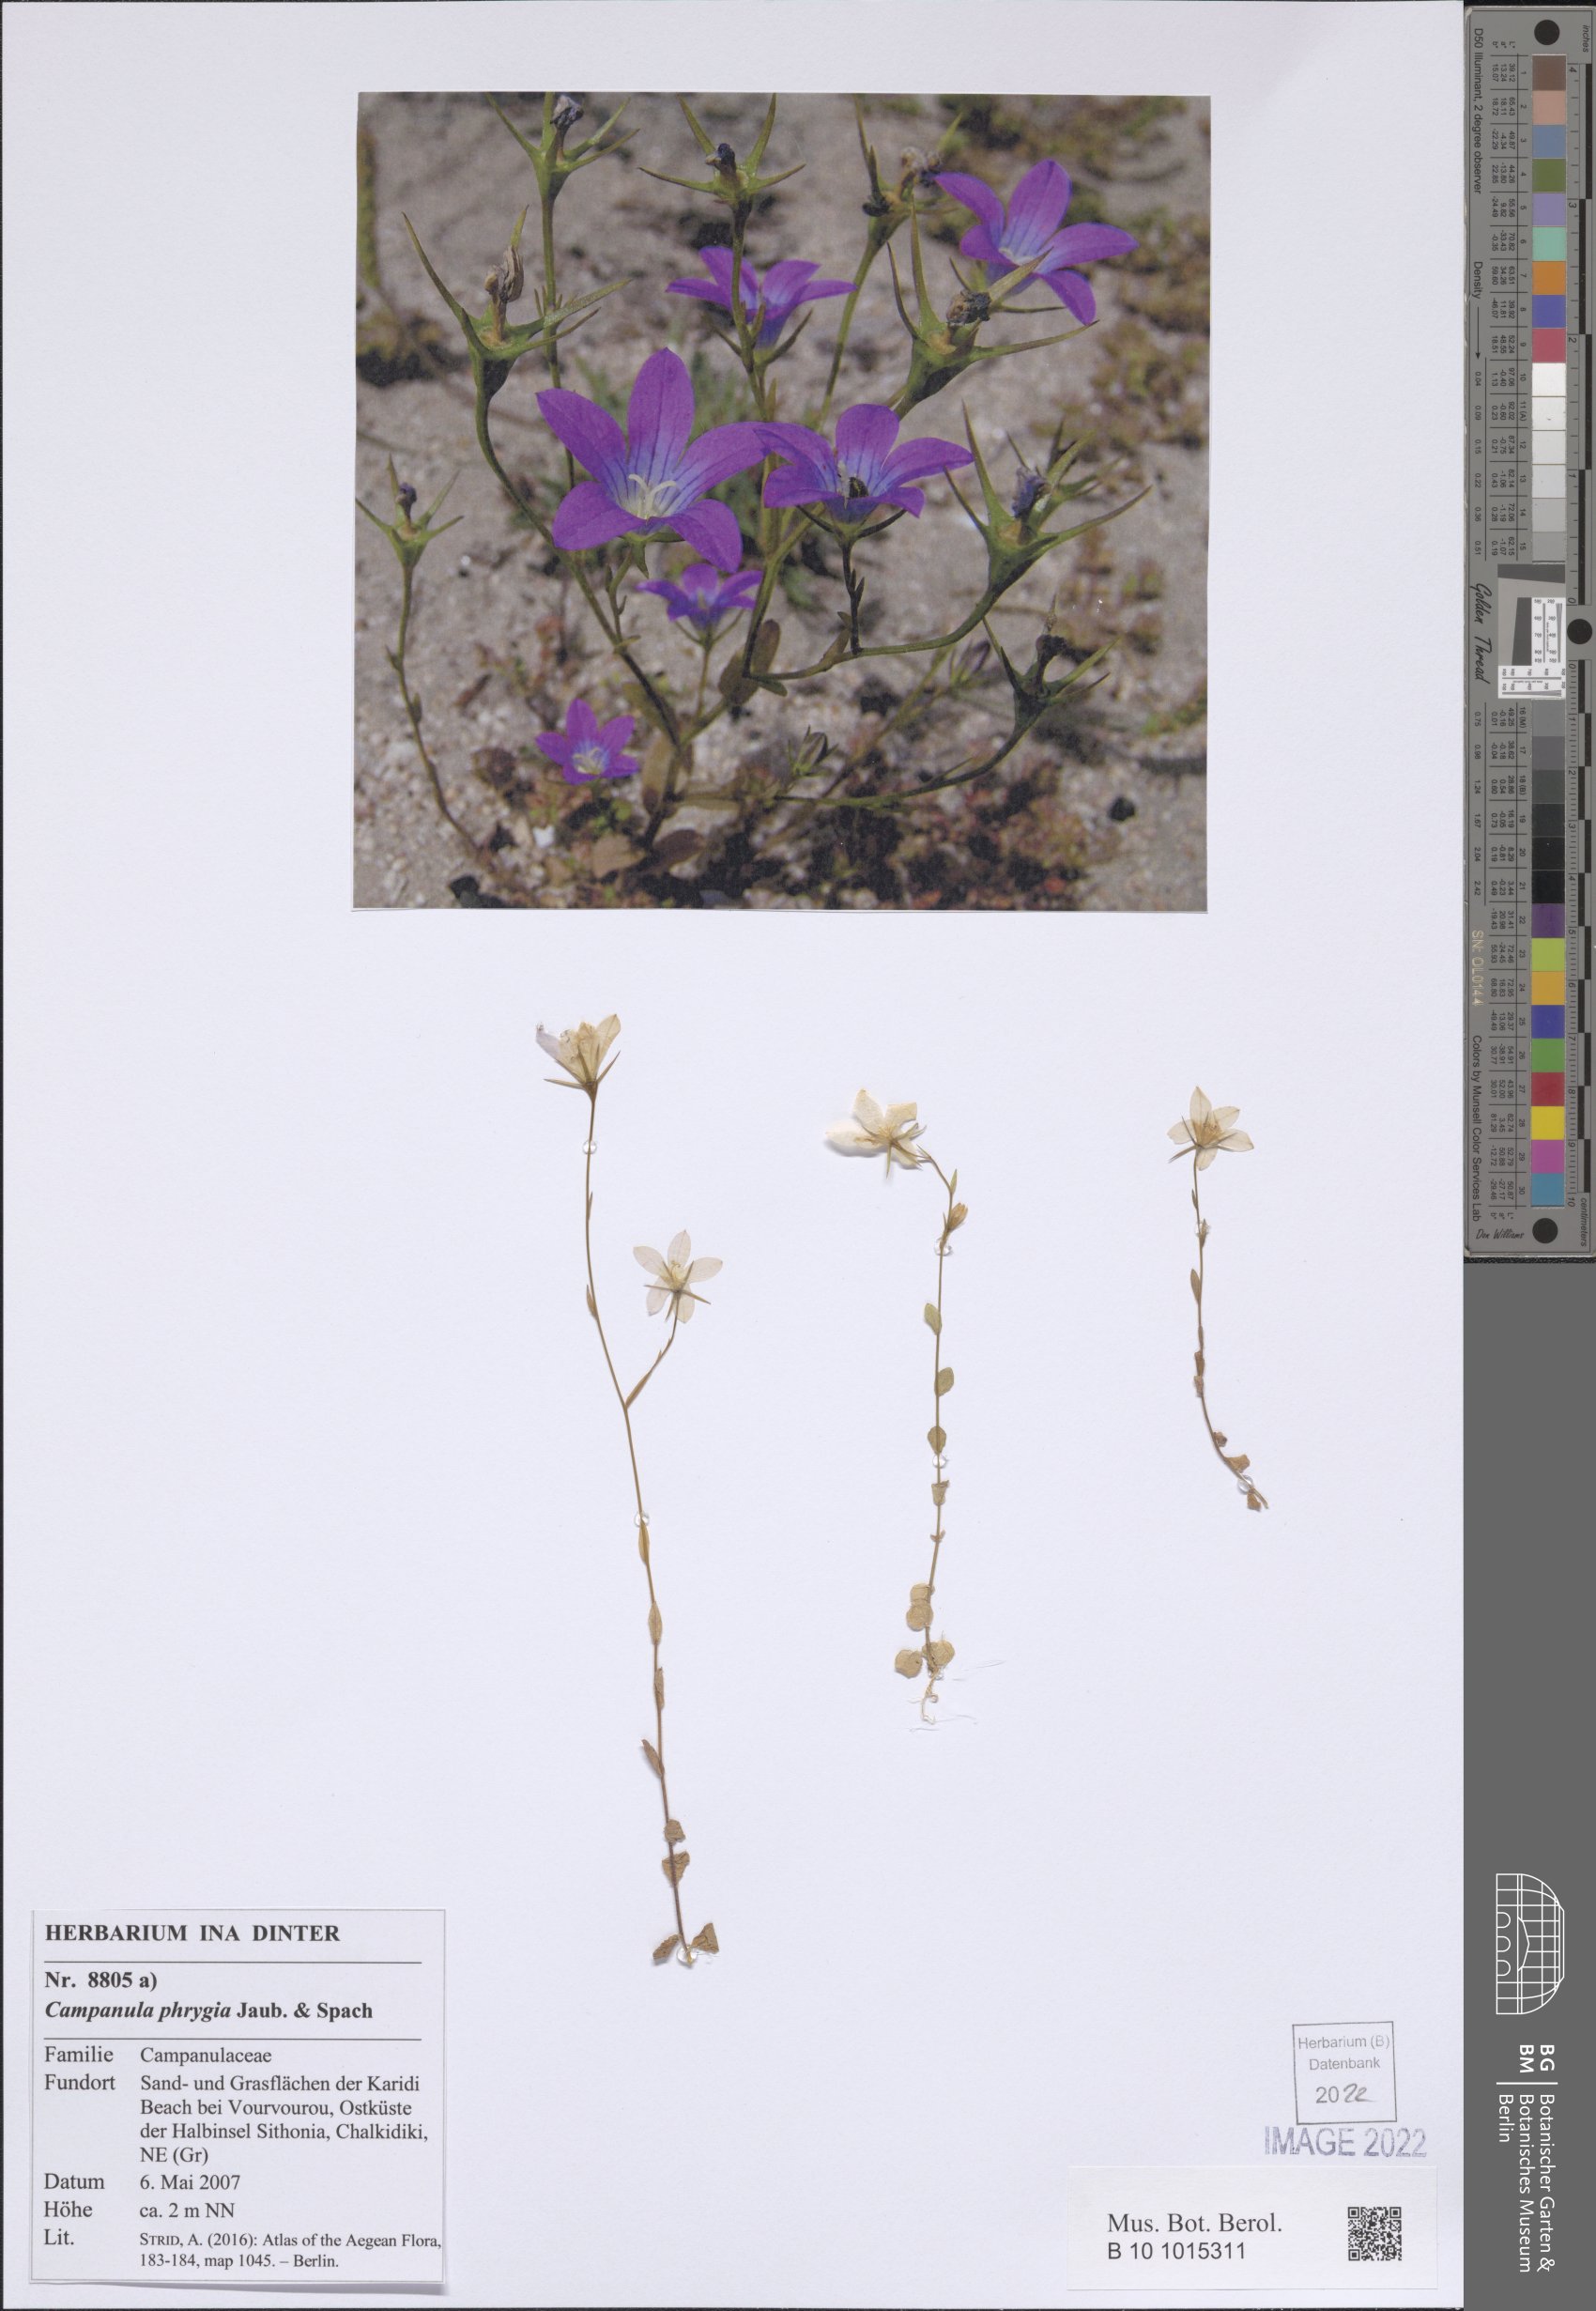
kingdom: Plantae
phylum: Tracheophyta
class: Magnoliopsida
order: Asterales
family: Campanulaceae
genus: Campanula
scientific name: Campanula phrygia
